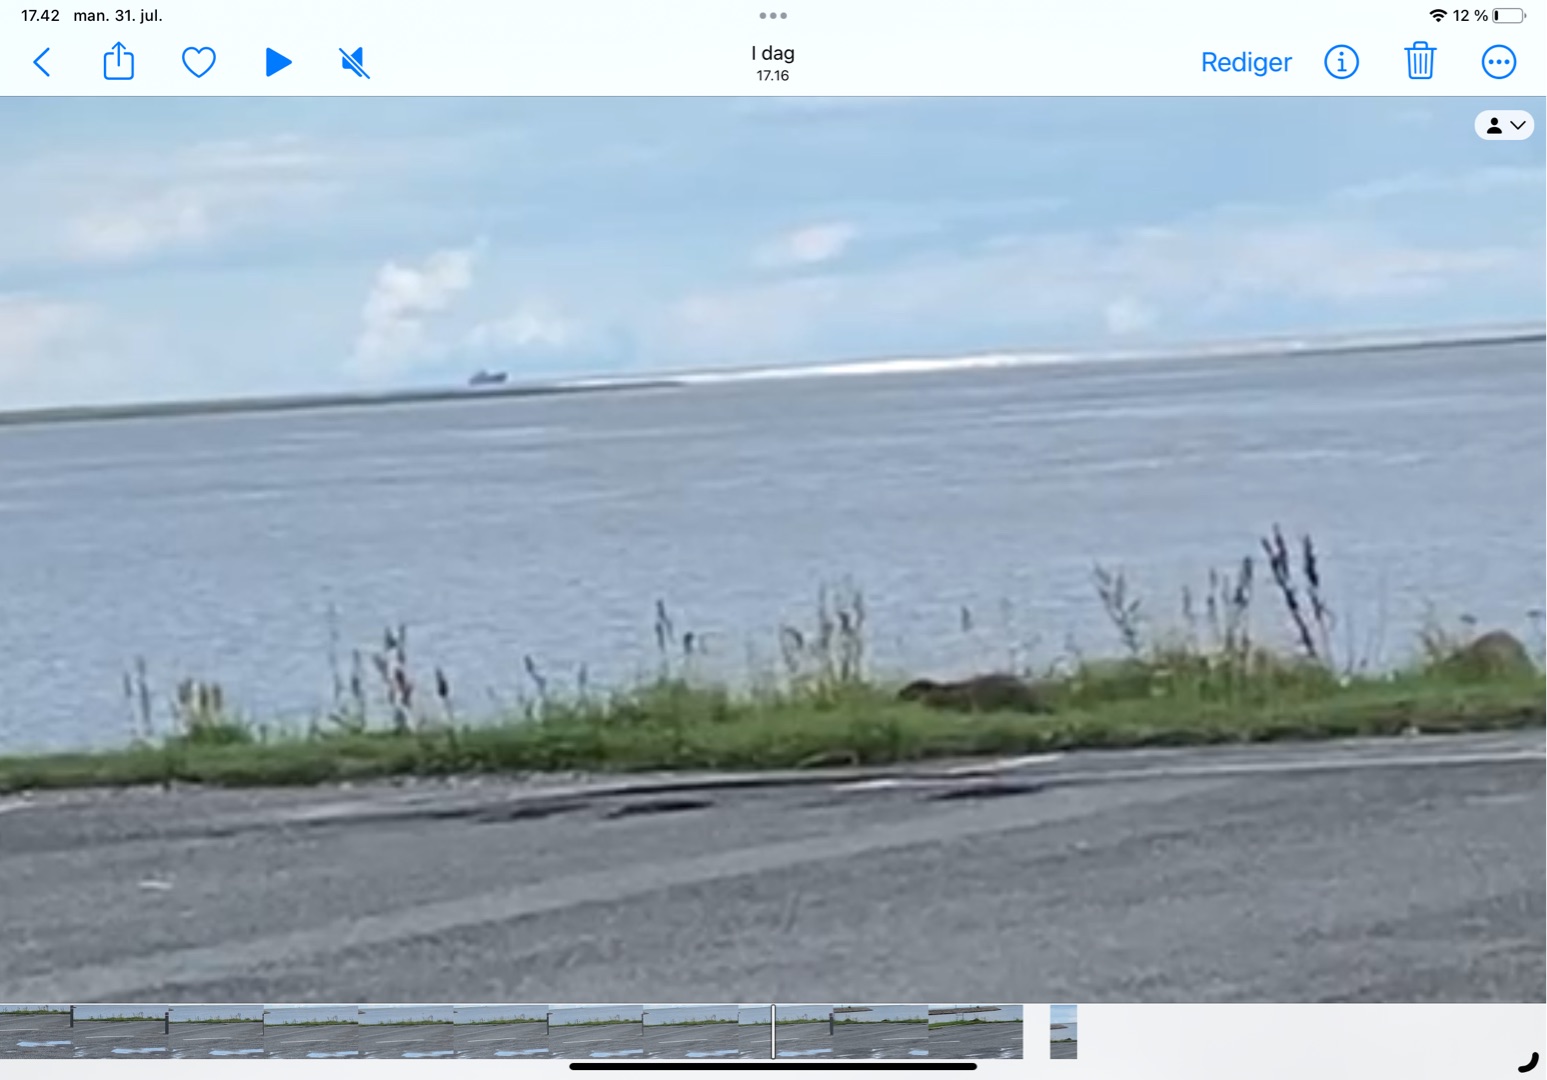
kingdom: Animalia
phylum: Chordata
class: Mammalia
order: Carnivora
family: Mustelidae
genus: Lutra
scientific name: Lutra lutra
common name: Odder
